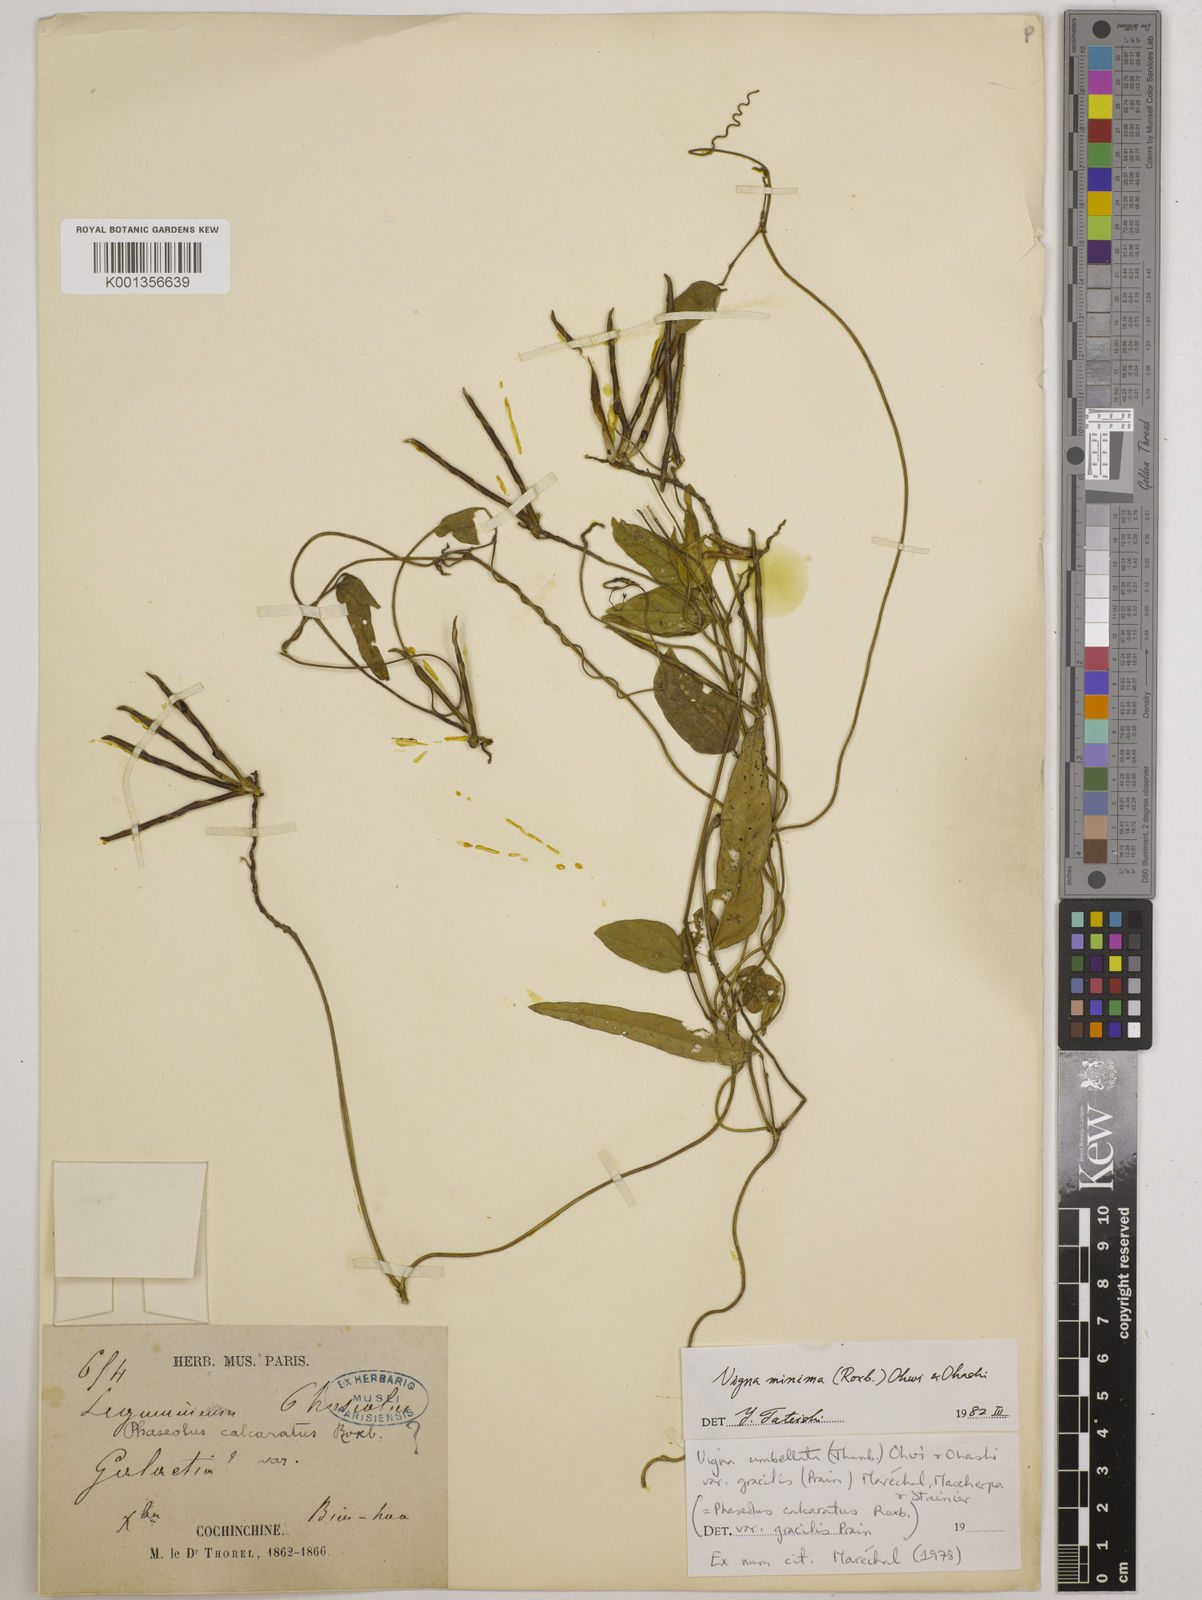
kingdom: Plantae
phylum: Tracheophyta
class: Magnoliopsida
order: Fabales
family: Fabaceae
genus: Vigna
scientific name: Vigna minima
